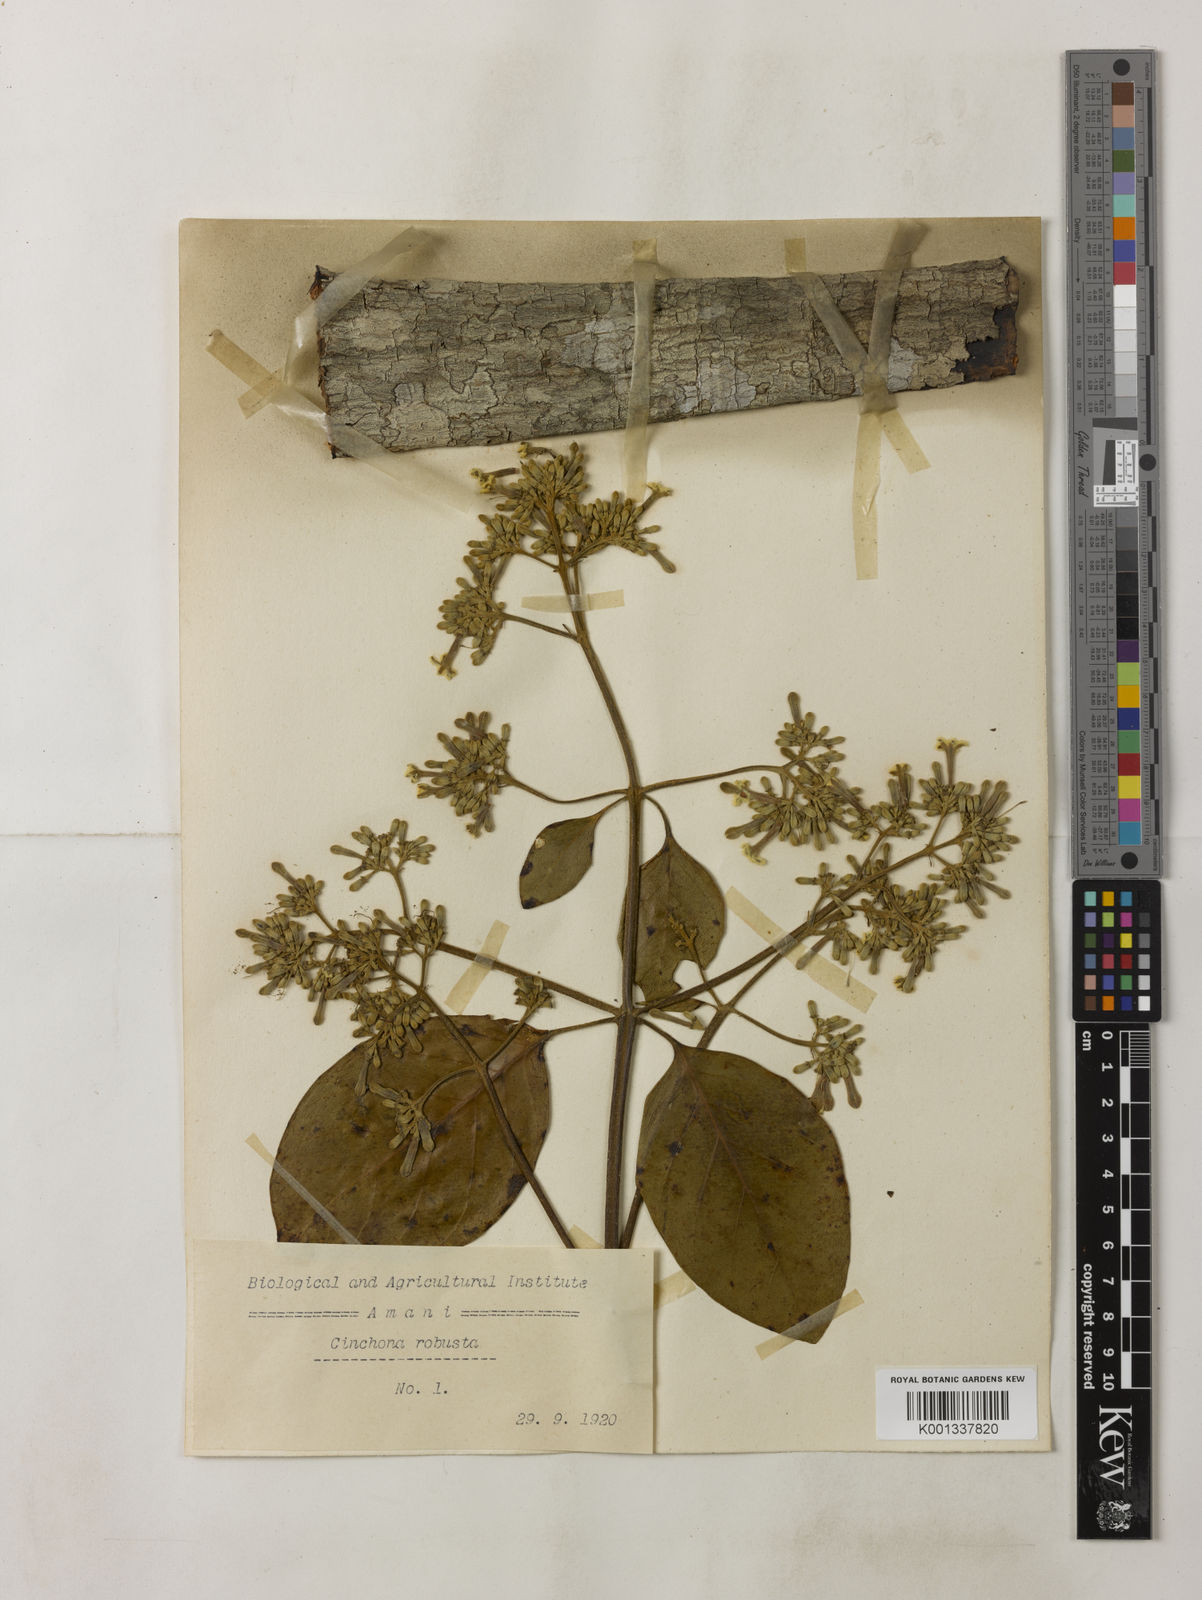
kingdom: Plantae
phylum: Tracheophyta
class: Magnoliopsida
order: Gentianales
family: Rubiaceae
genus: Cinchona
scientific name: Cinchona officinalis
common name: Lojabark
